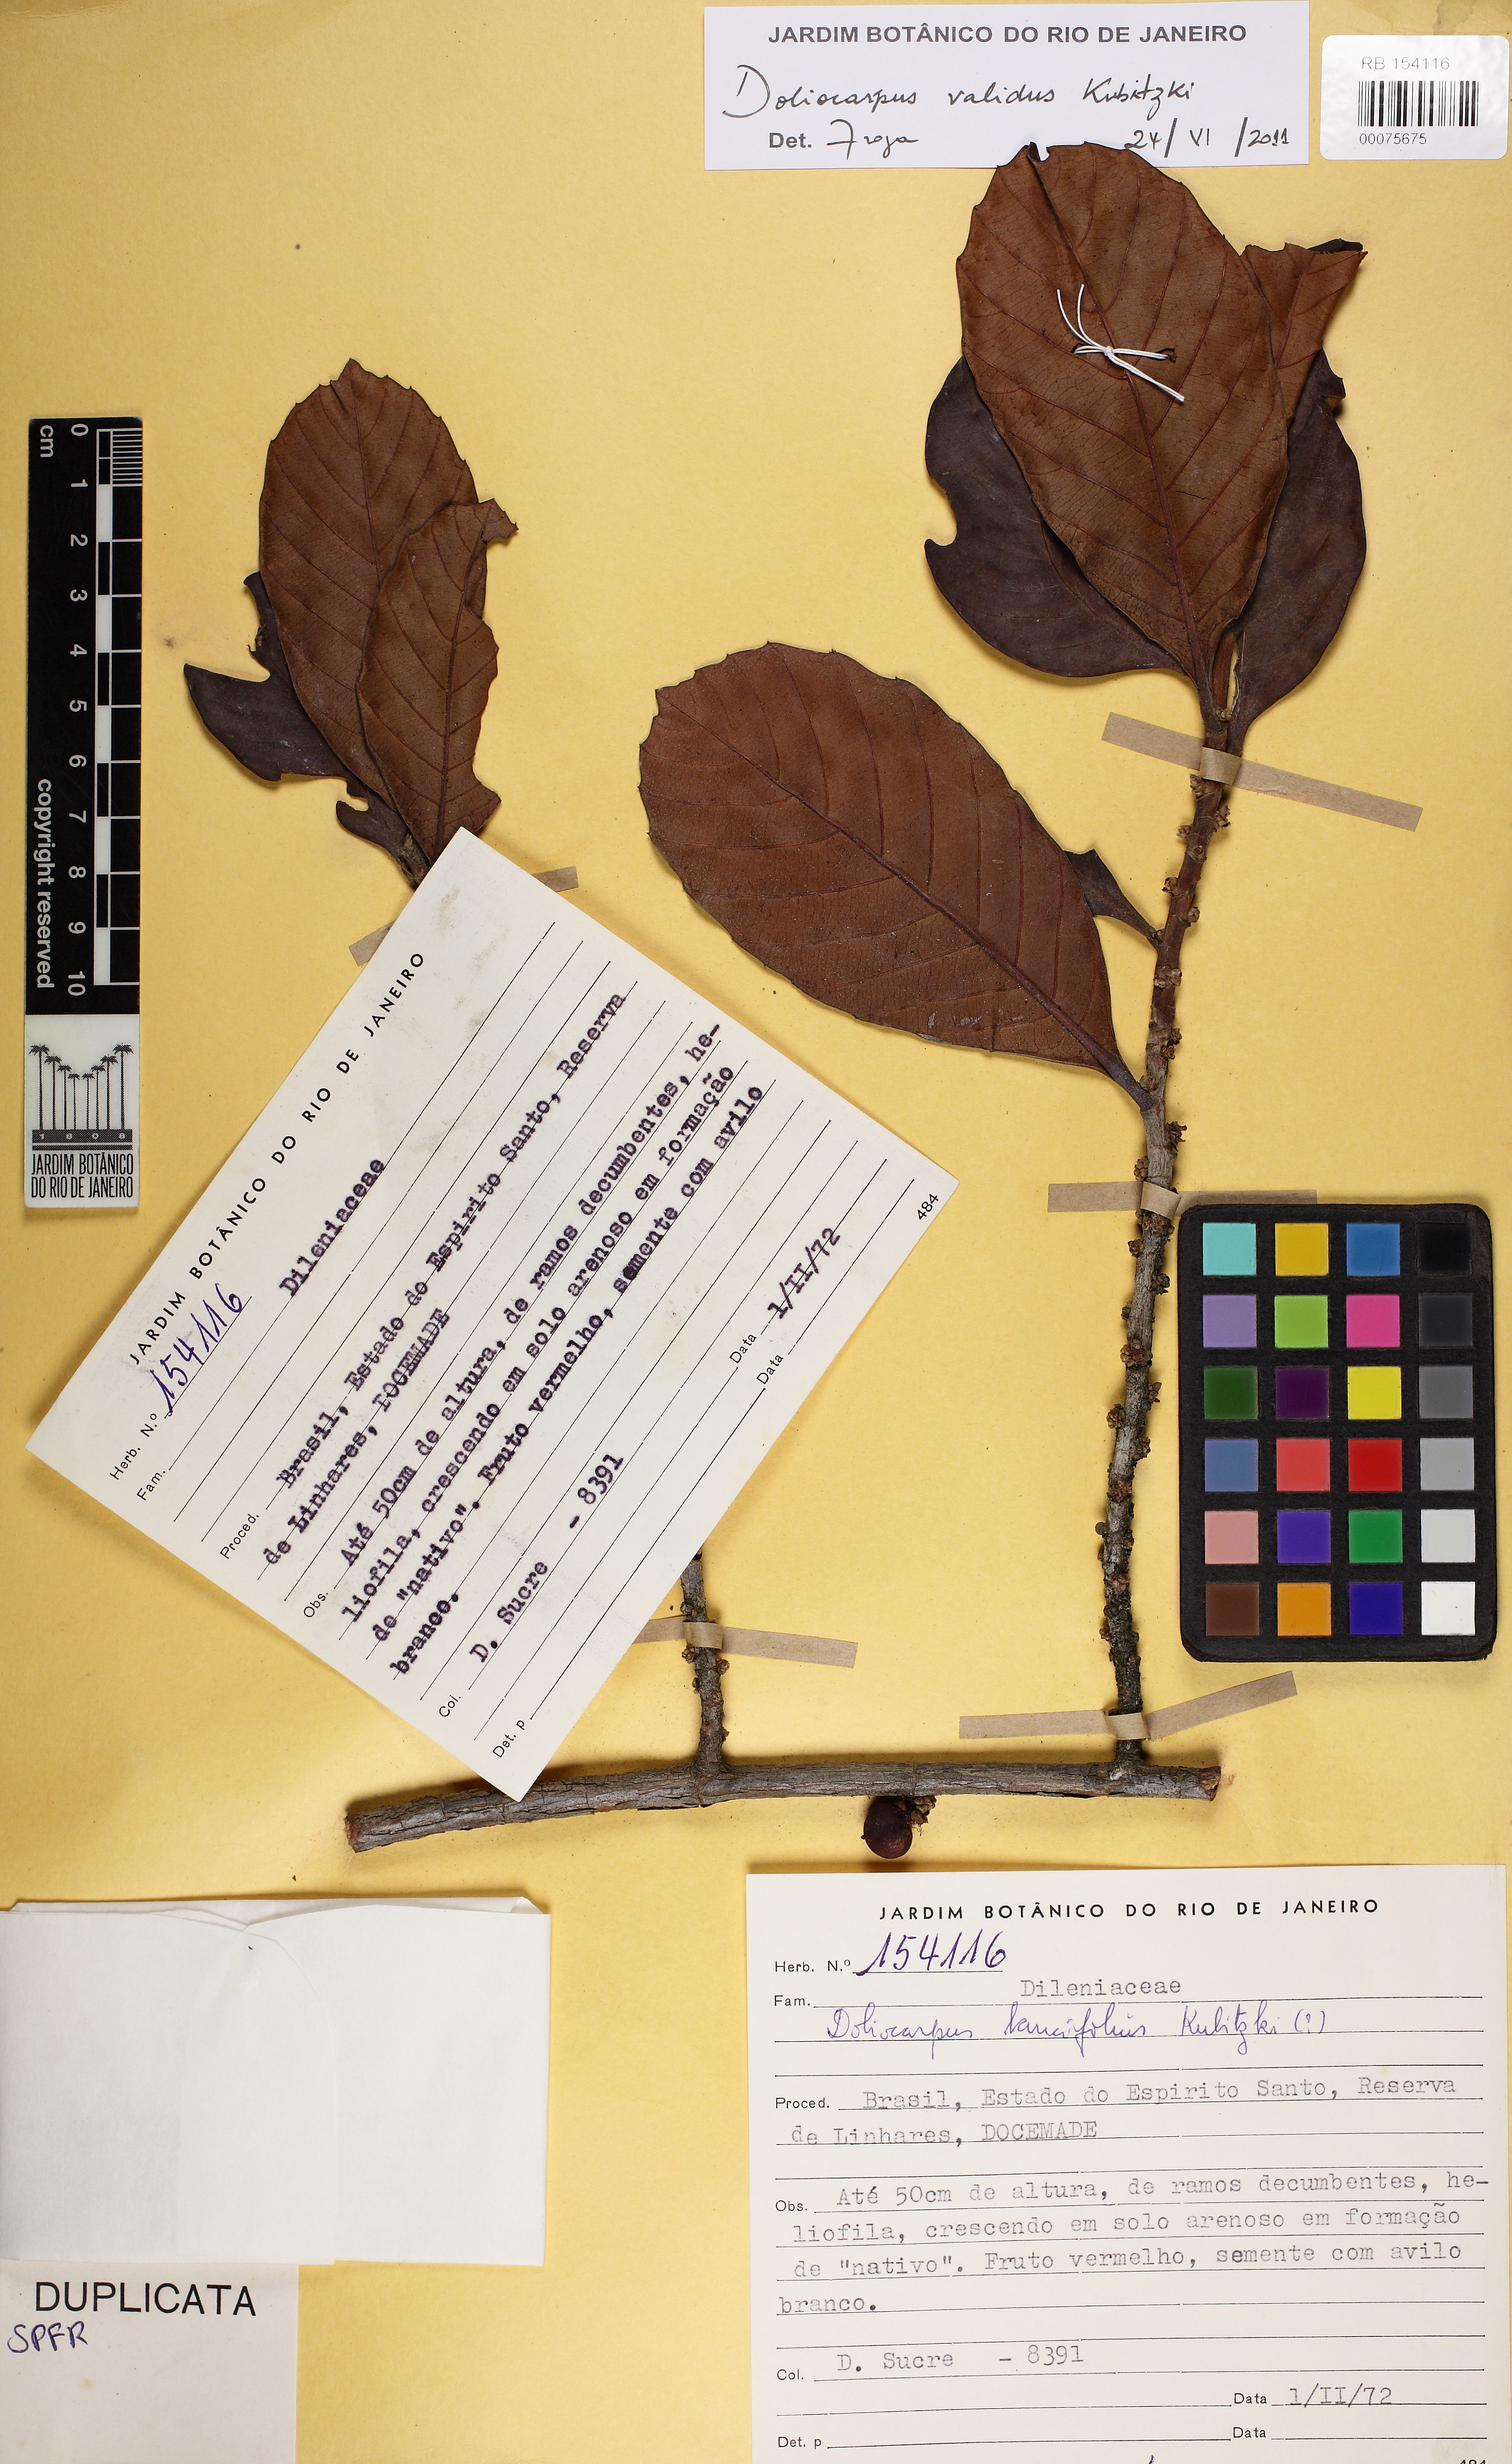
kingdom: Plantae
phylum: Tracheophyta
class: Magnoliopsida
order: Dilleniales
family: Dilleniaceae
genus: Doliocarpus
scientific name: Doliocarpus validus
